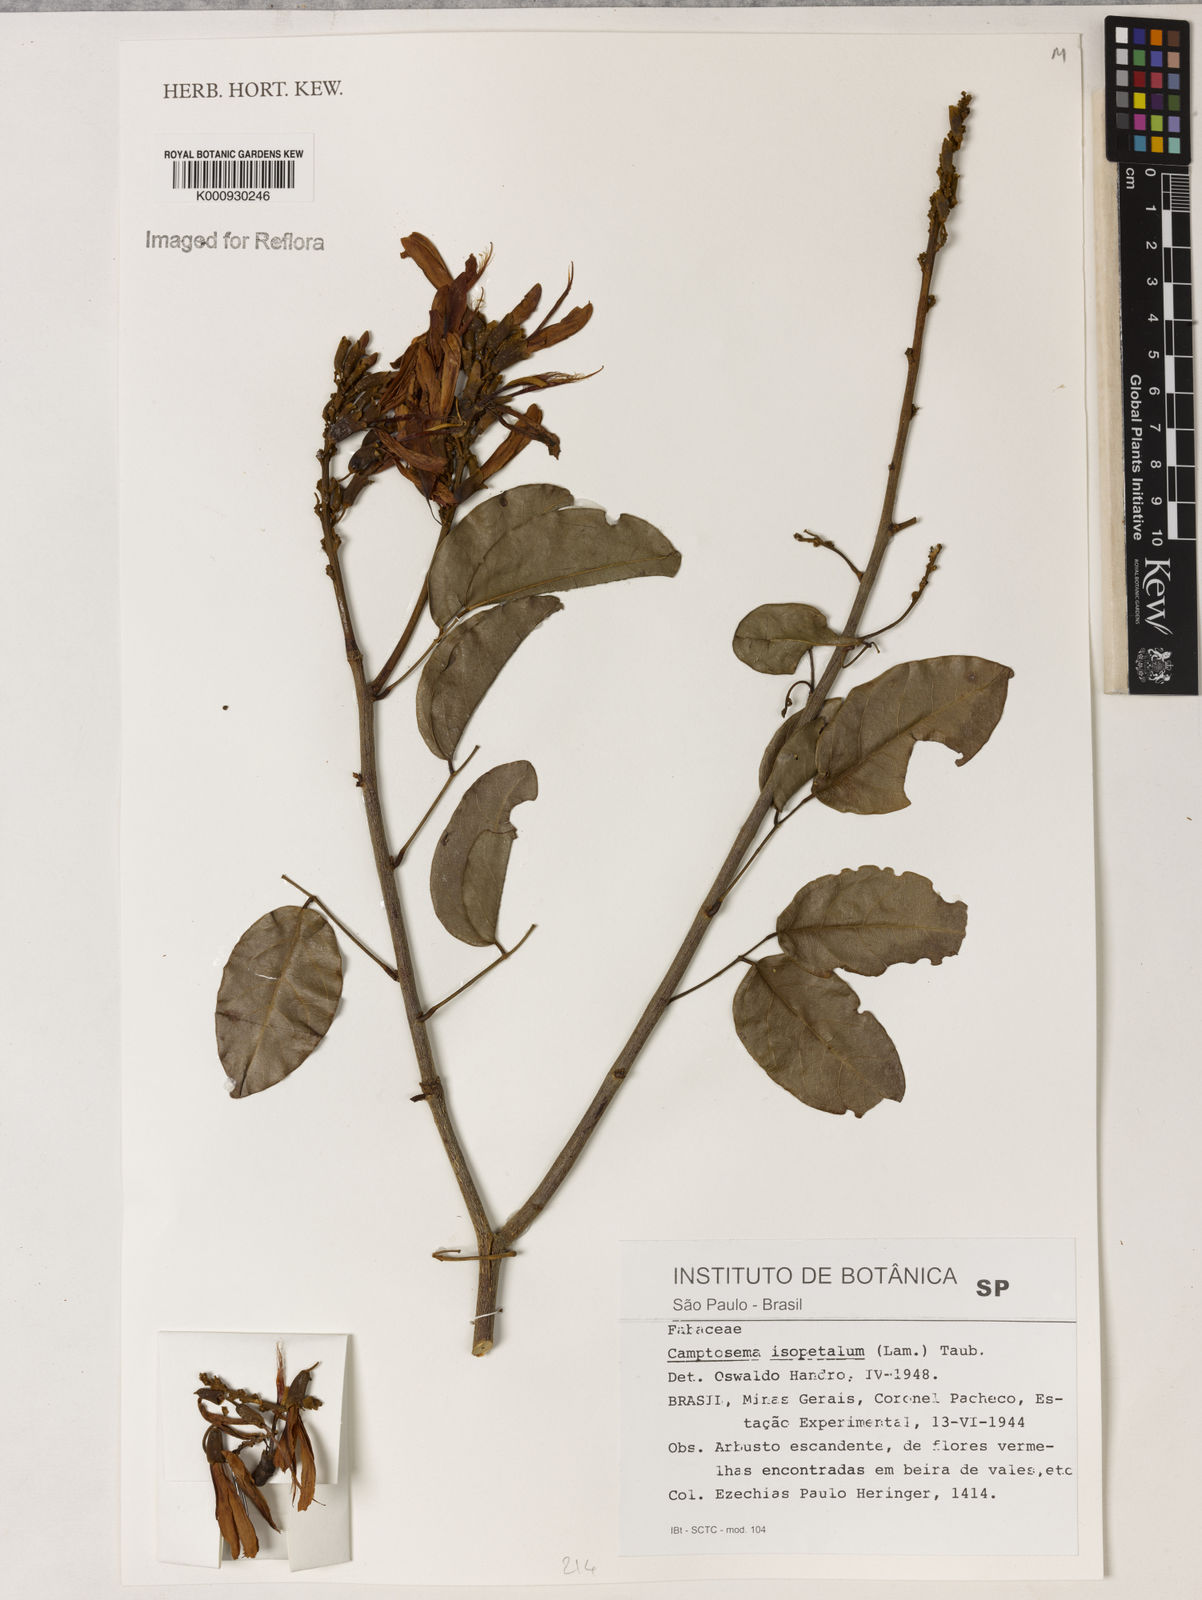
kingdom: Plantae
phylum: Tracheophyta
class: Magnoliopsida
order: Fabales
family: Fabaceae
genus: Cratylia
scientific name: Cratylia isopetala
